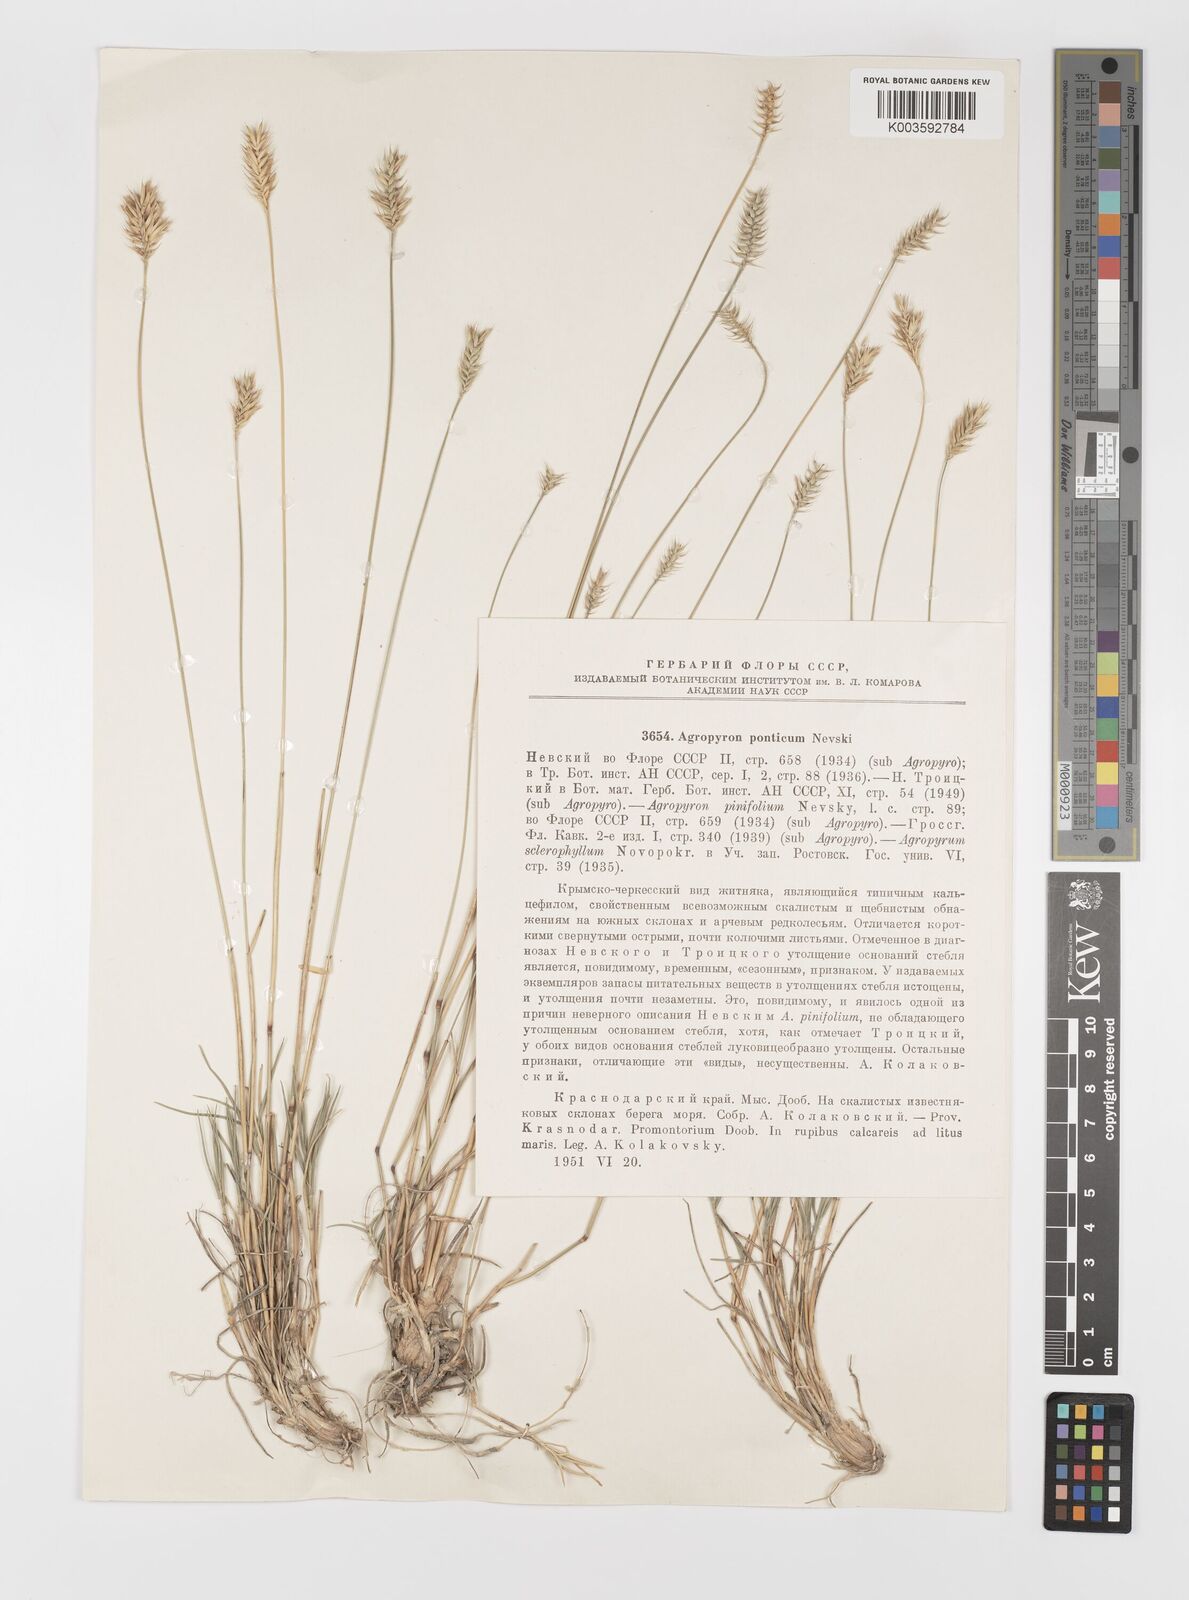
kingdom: Plantae
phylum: Tracheophyta
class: Liliopsida
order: Poales
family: Poaceae
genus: Agropyron
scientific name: Agropyron cristatum
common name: Crested wheatgrass
